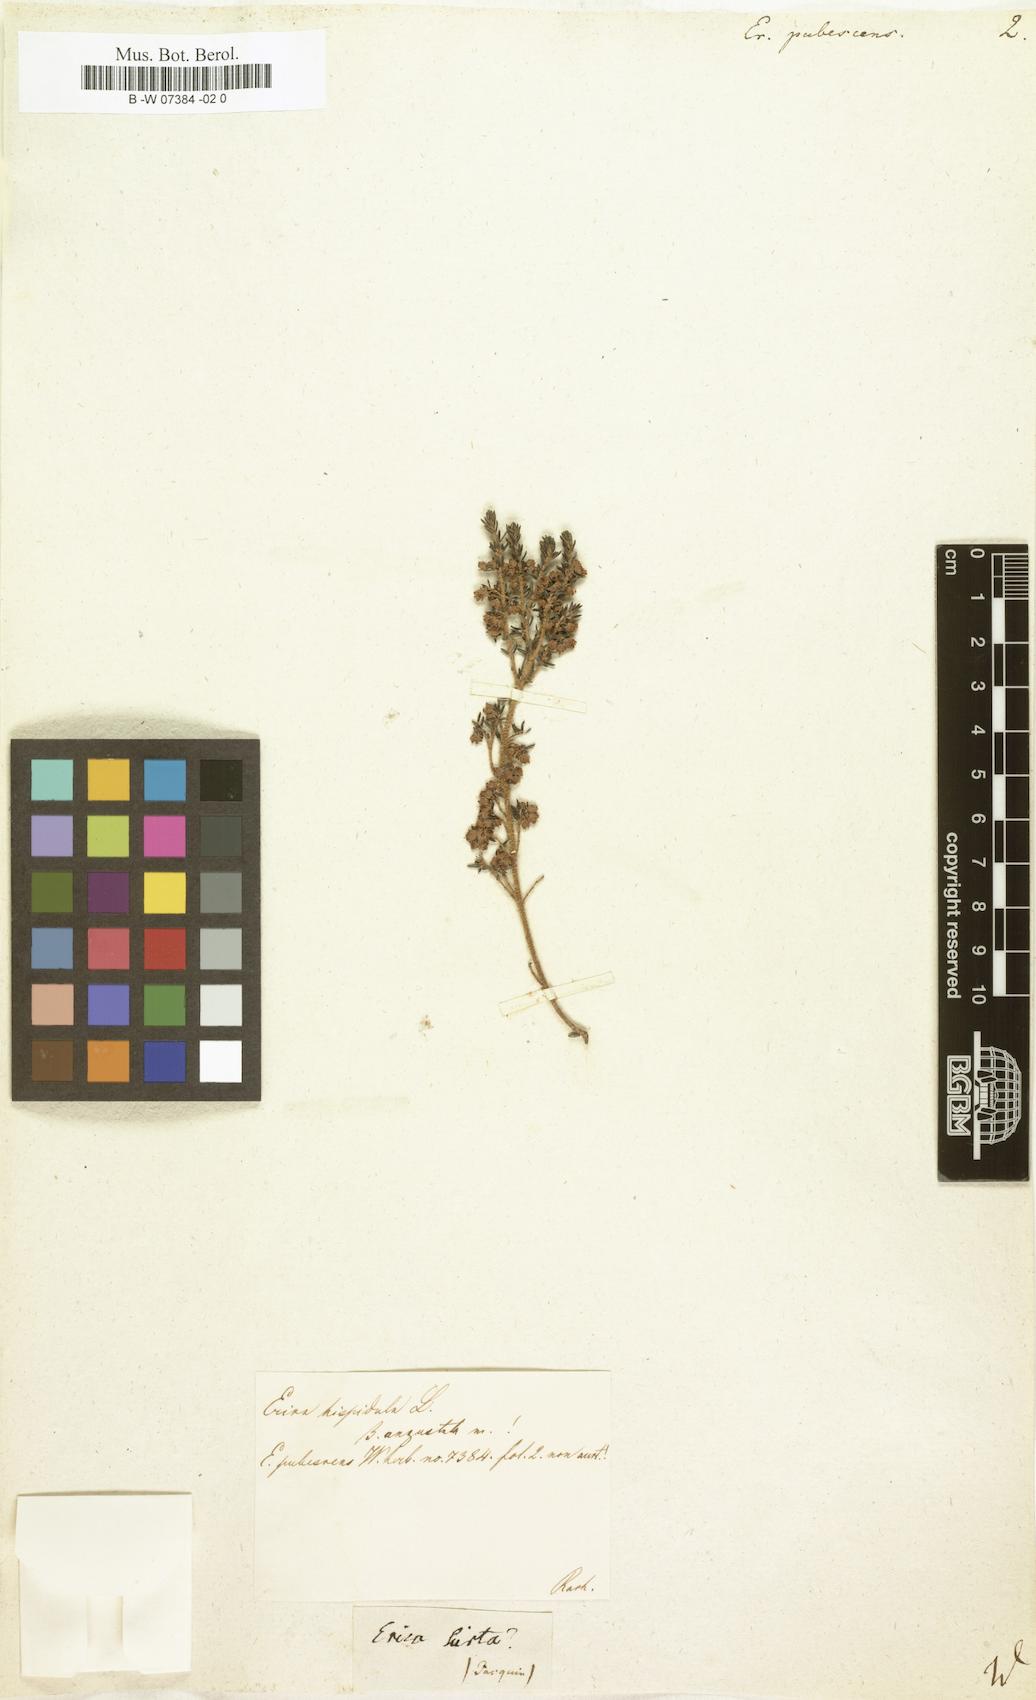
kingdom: Plantae
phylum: Tracheophyta
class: Magnoliopsida
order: Ericales
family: Ericaceae
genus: Erica
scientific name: Erica pubescens
